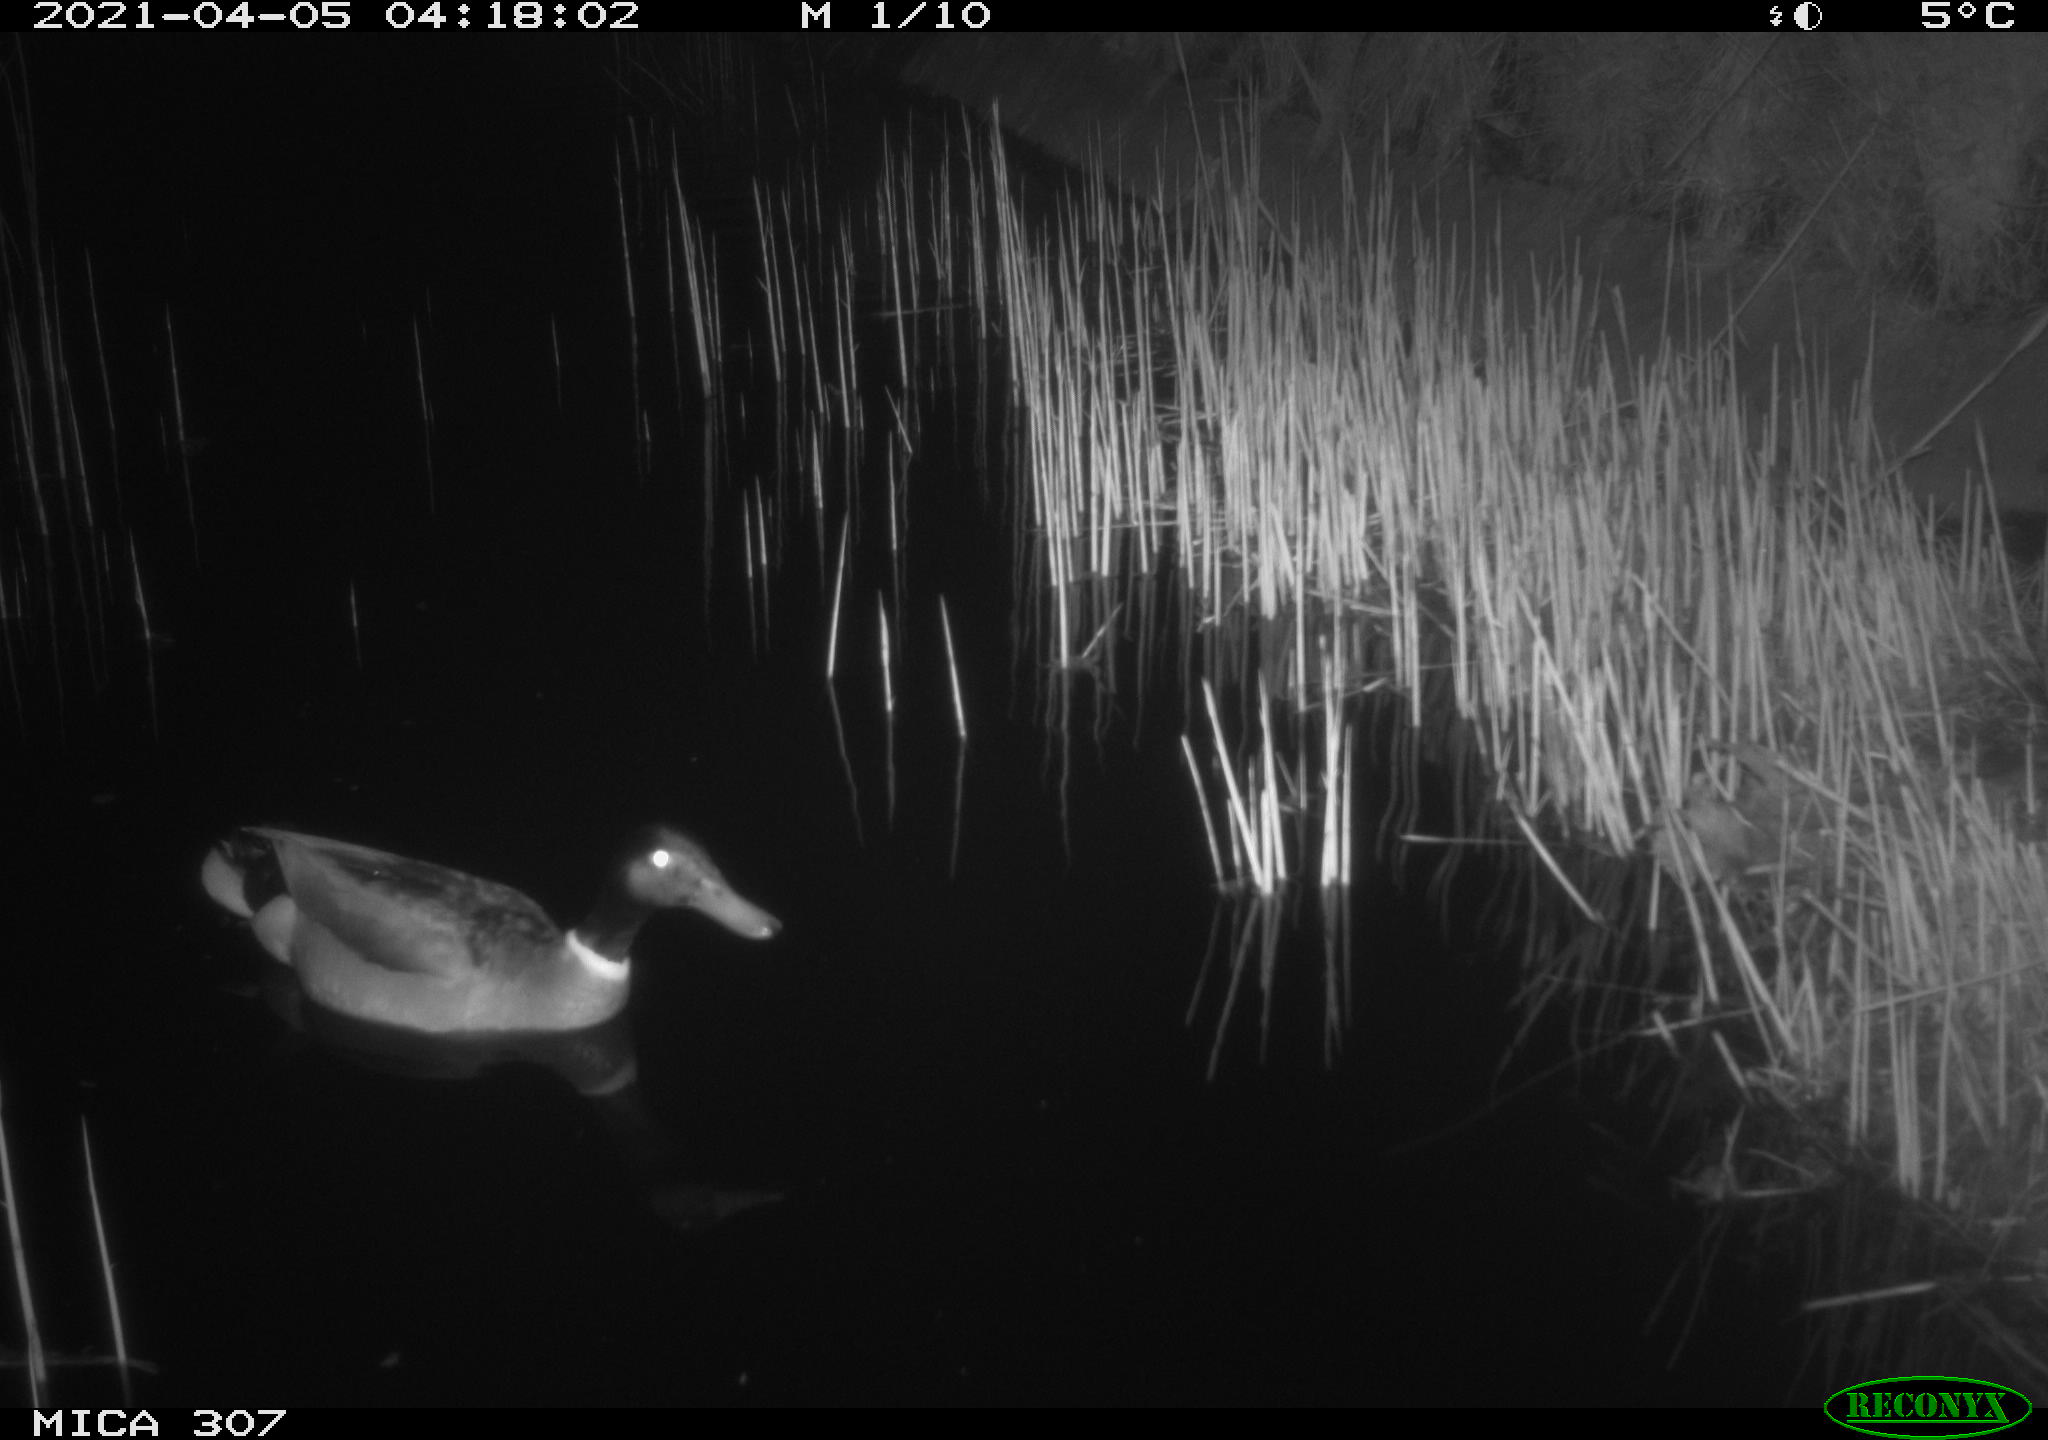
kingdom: Animalia
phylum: Chordata
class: Aves
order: Anseriformes
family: Anatidae
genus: Anas
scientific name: Anas platyrhynchos
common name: Mallard
